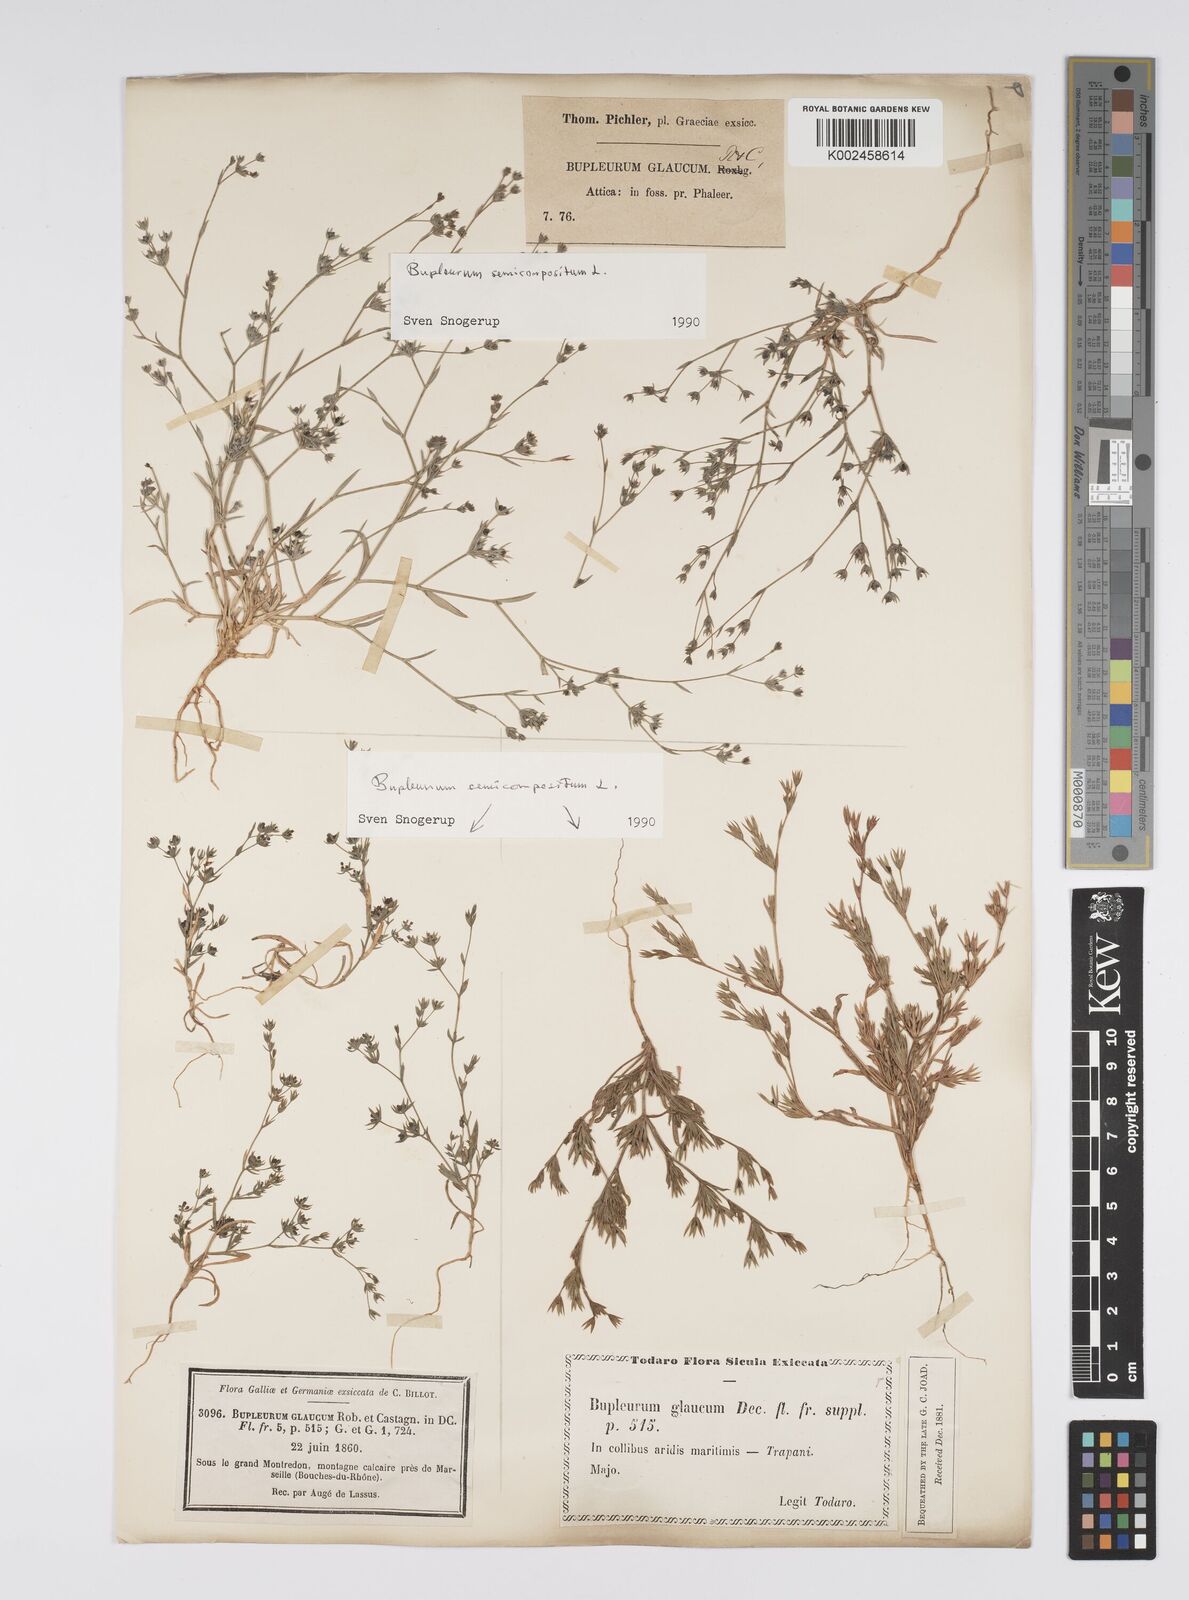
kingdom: Plantae
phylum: Tracheophyta
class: Magnoliopsida
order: Apiales
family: Apiaceae
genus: Bupleurum
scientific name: Bupleurum semicompositum
